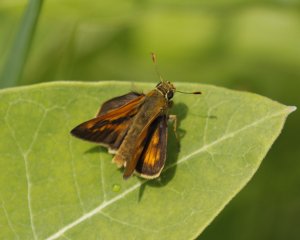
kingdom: Animalia
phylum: Arthropoda
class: Insecta
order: Lepidoptera
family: Hesperiidae
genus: Polites
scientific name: Polites
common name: Long Dash Skipper
